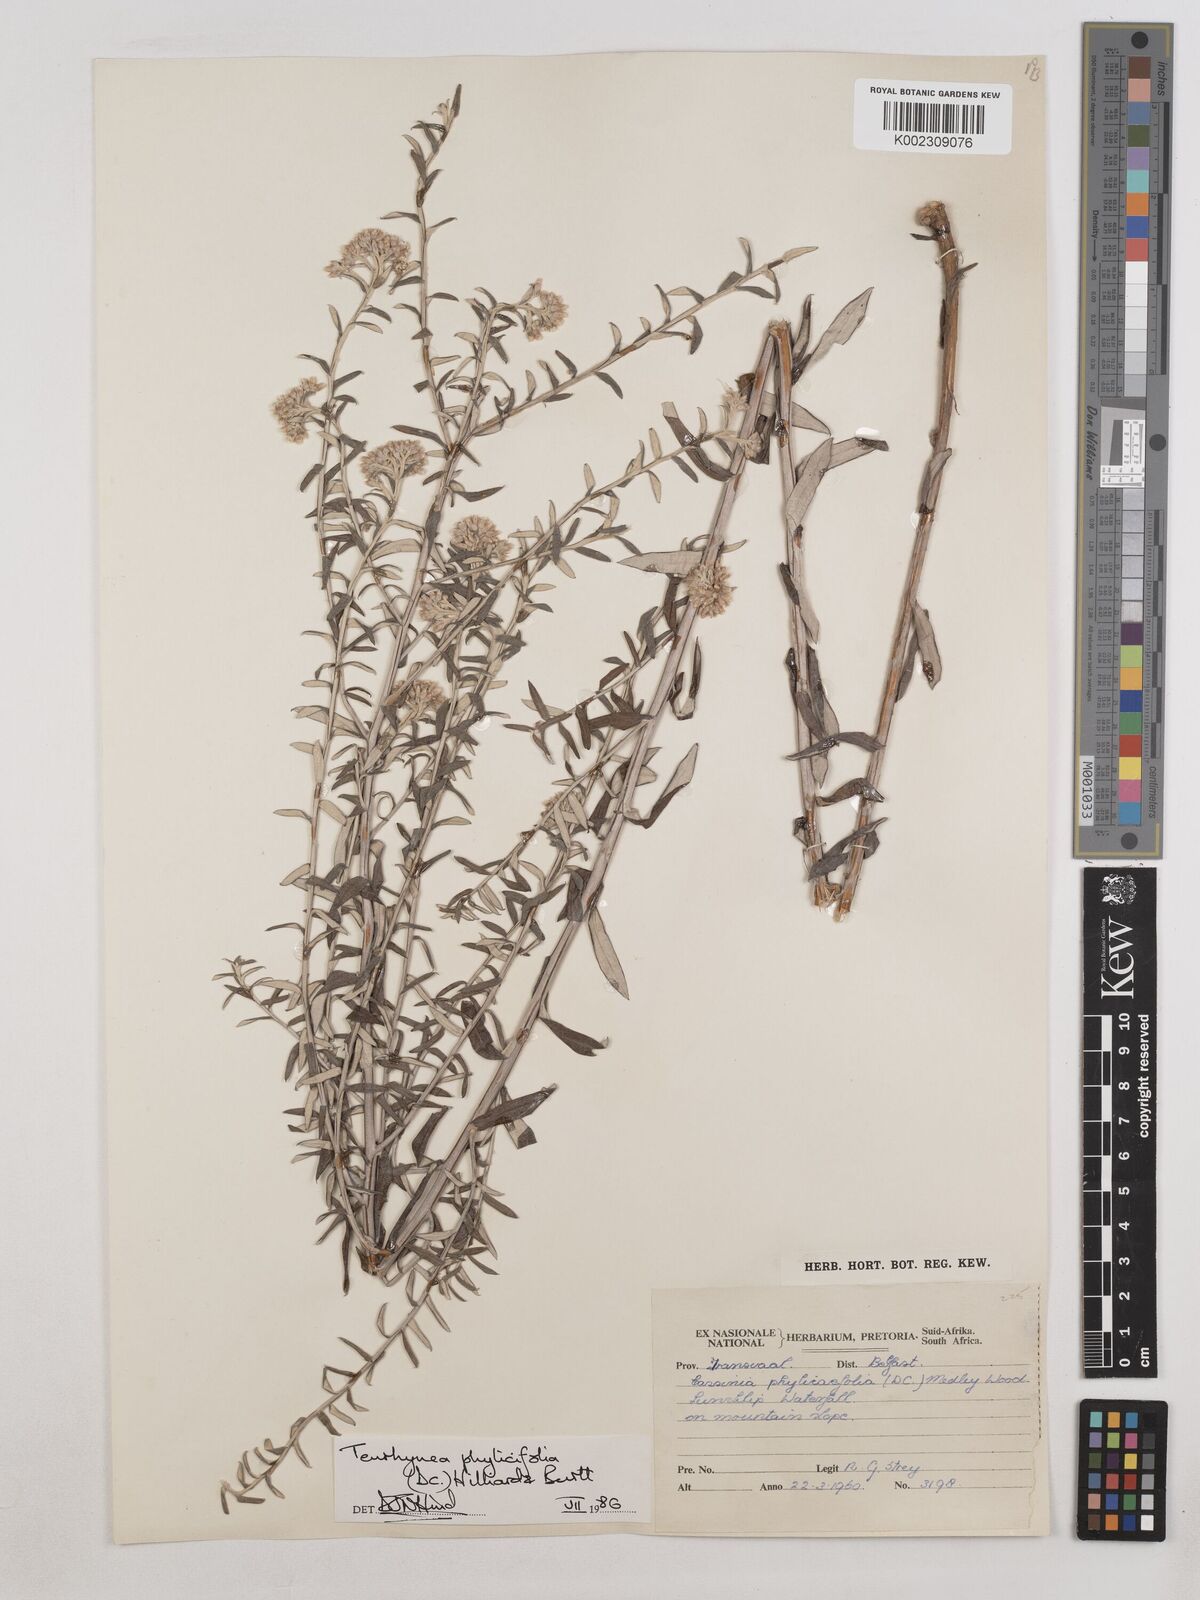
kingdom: Plantae
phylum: Tracheophyta
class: Magnoliopsida
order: Asterales
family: Asteraceae
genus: Tenrhynea
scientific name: Tenrhynea phylicifolia
